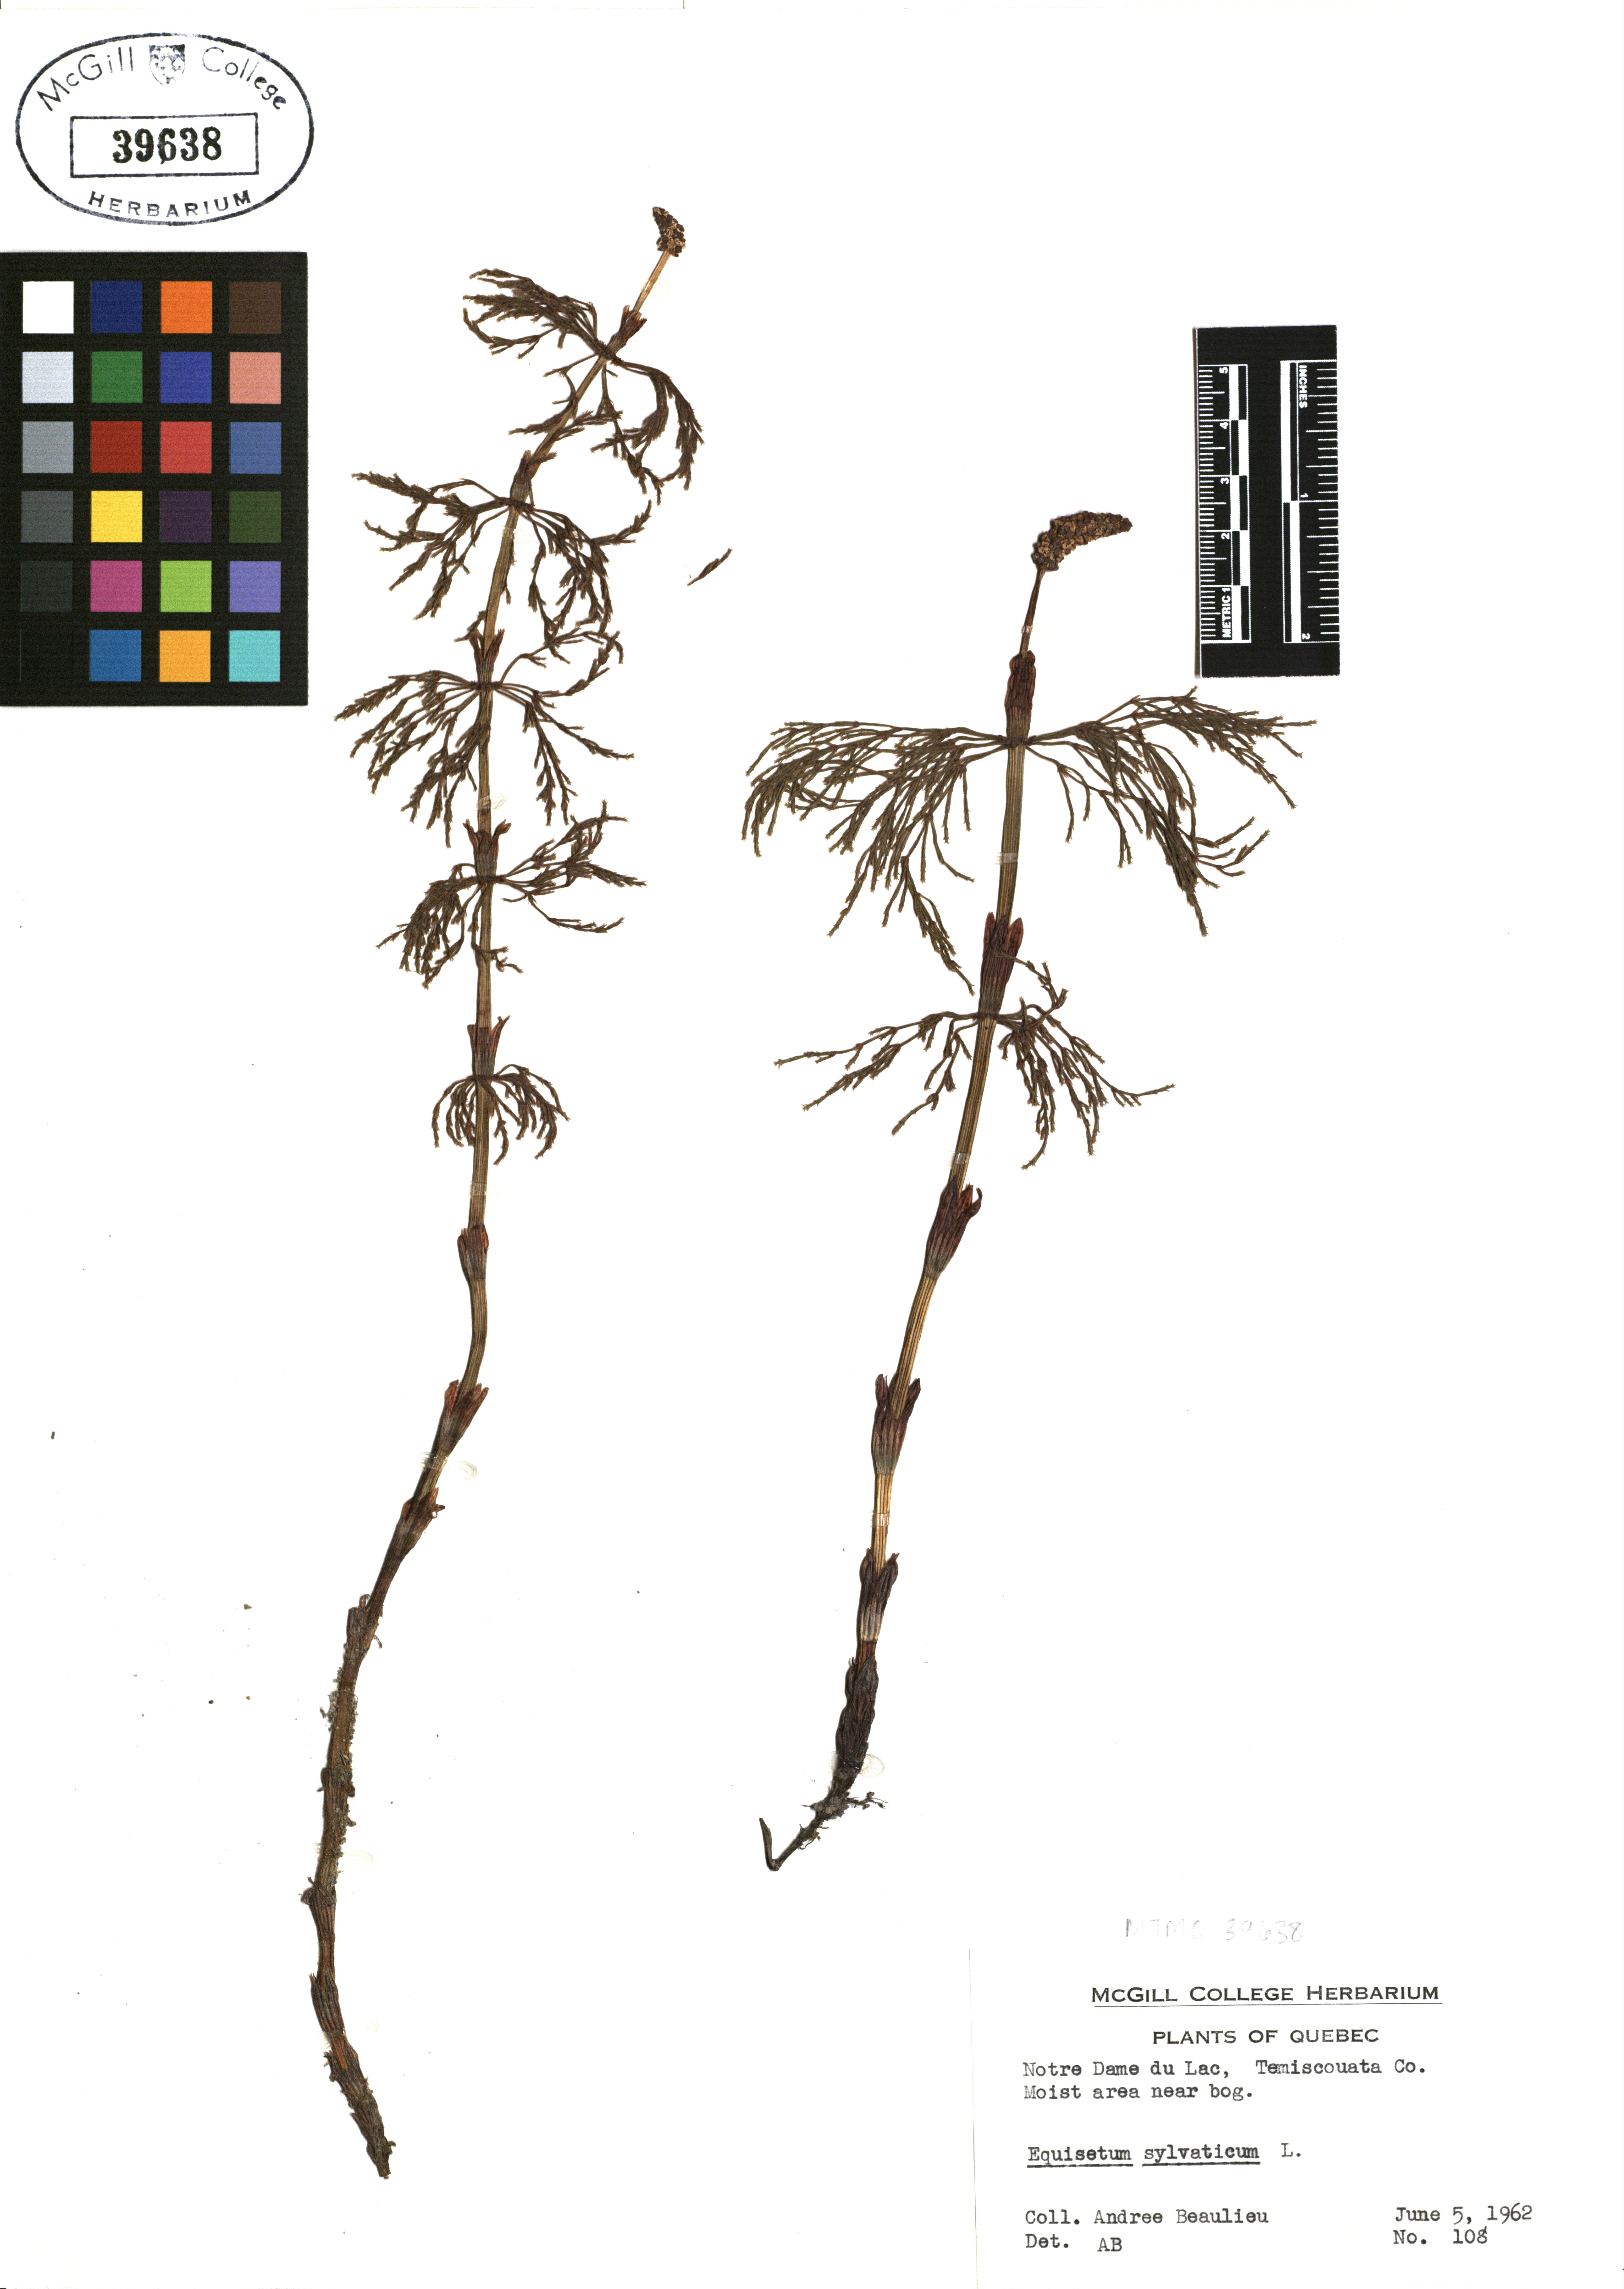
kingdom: Plantae
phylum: Tracheophyta
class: Polypodiopsida
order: Equisetales
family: Equisetaceae
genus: Equisetum
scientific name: Equisetum sylvaticum
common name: Wood horsetail
